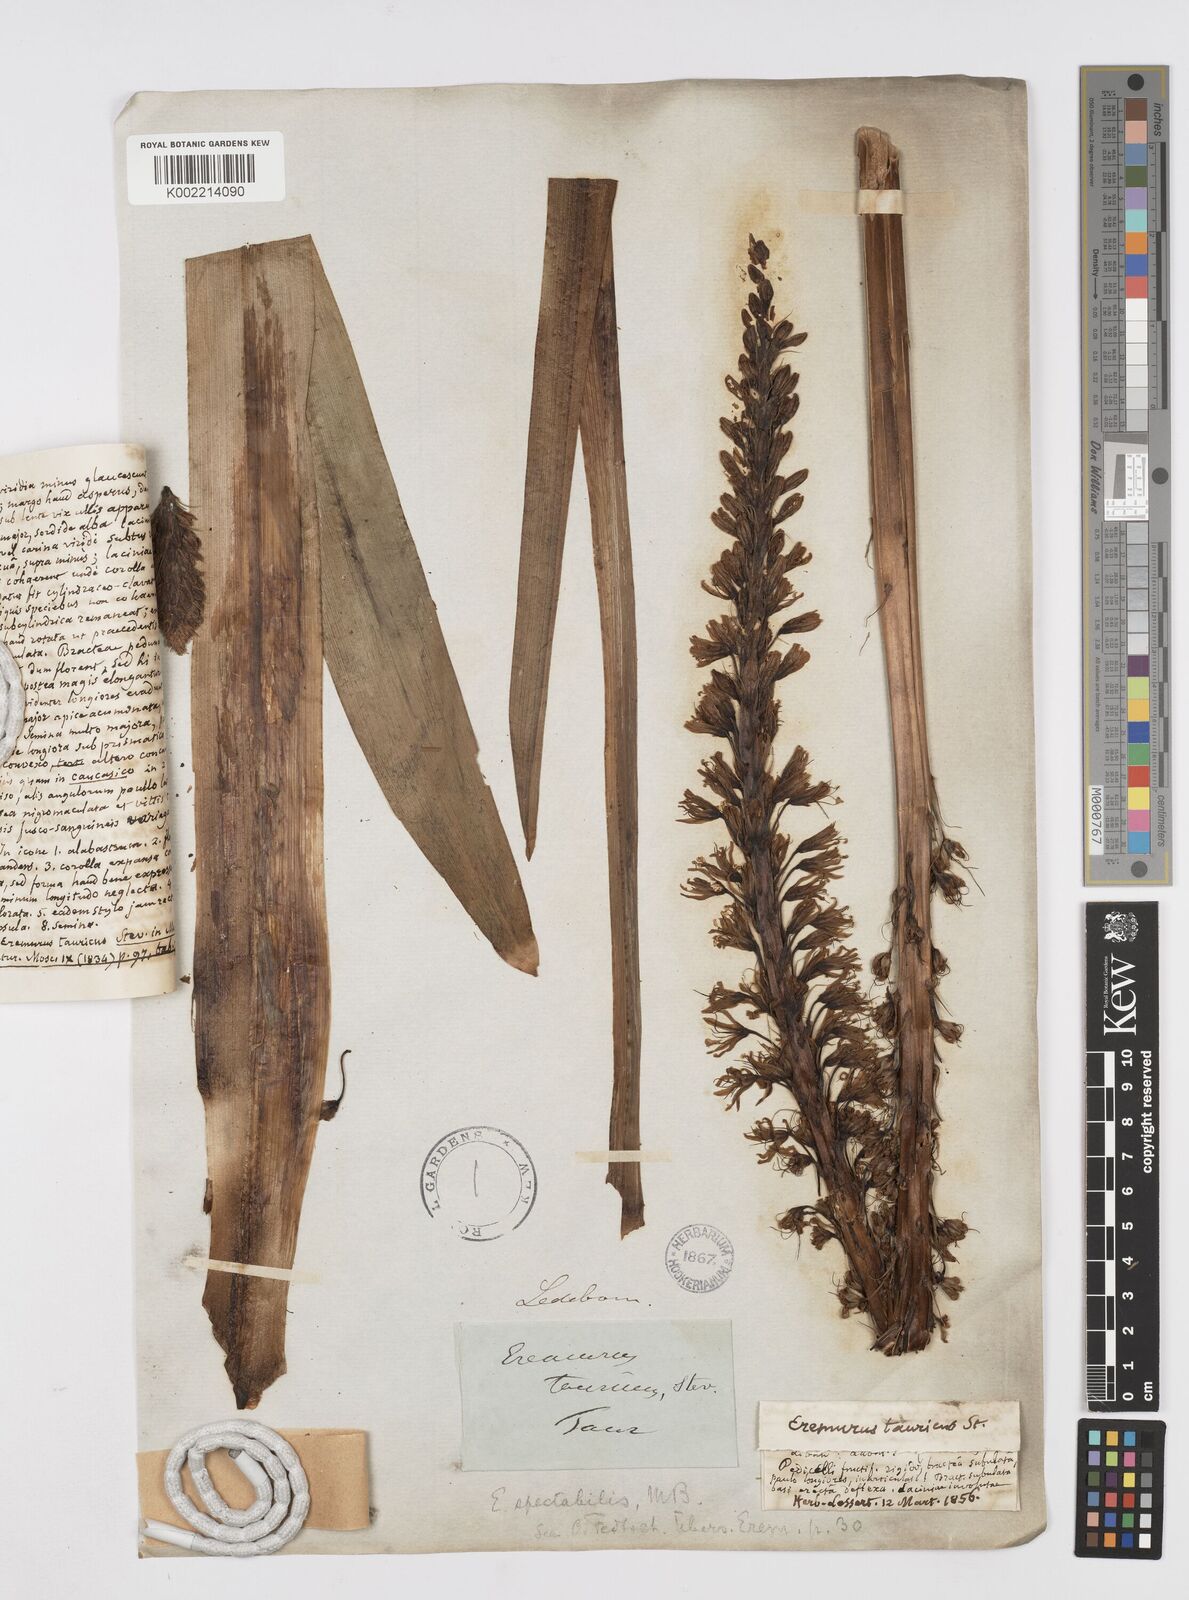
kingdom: Plantae
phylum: Tracheophyta
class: Liliopsida
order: Asparagales
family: Asphodelaceae
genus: Eremurus
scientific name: Eremurus spectabilis
